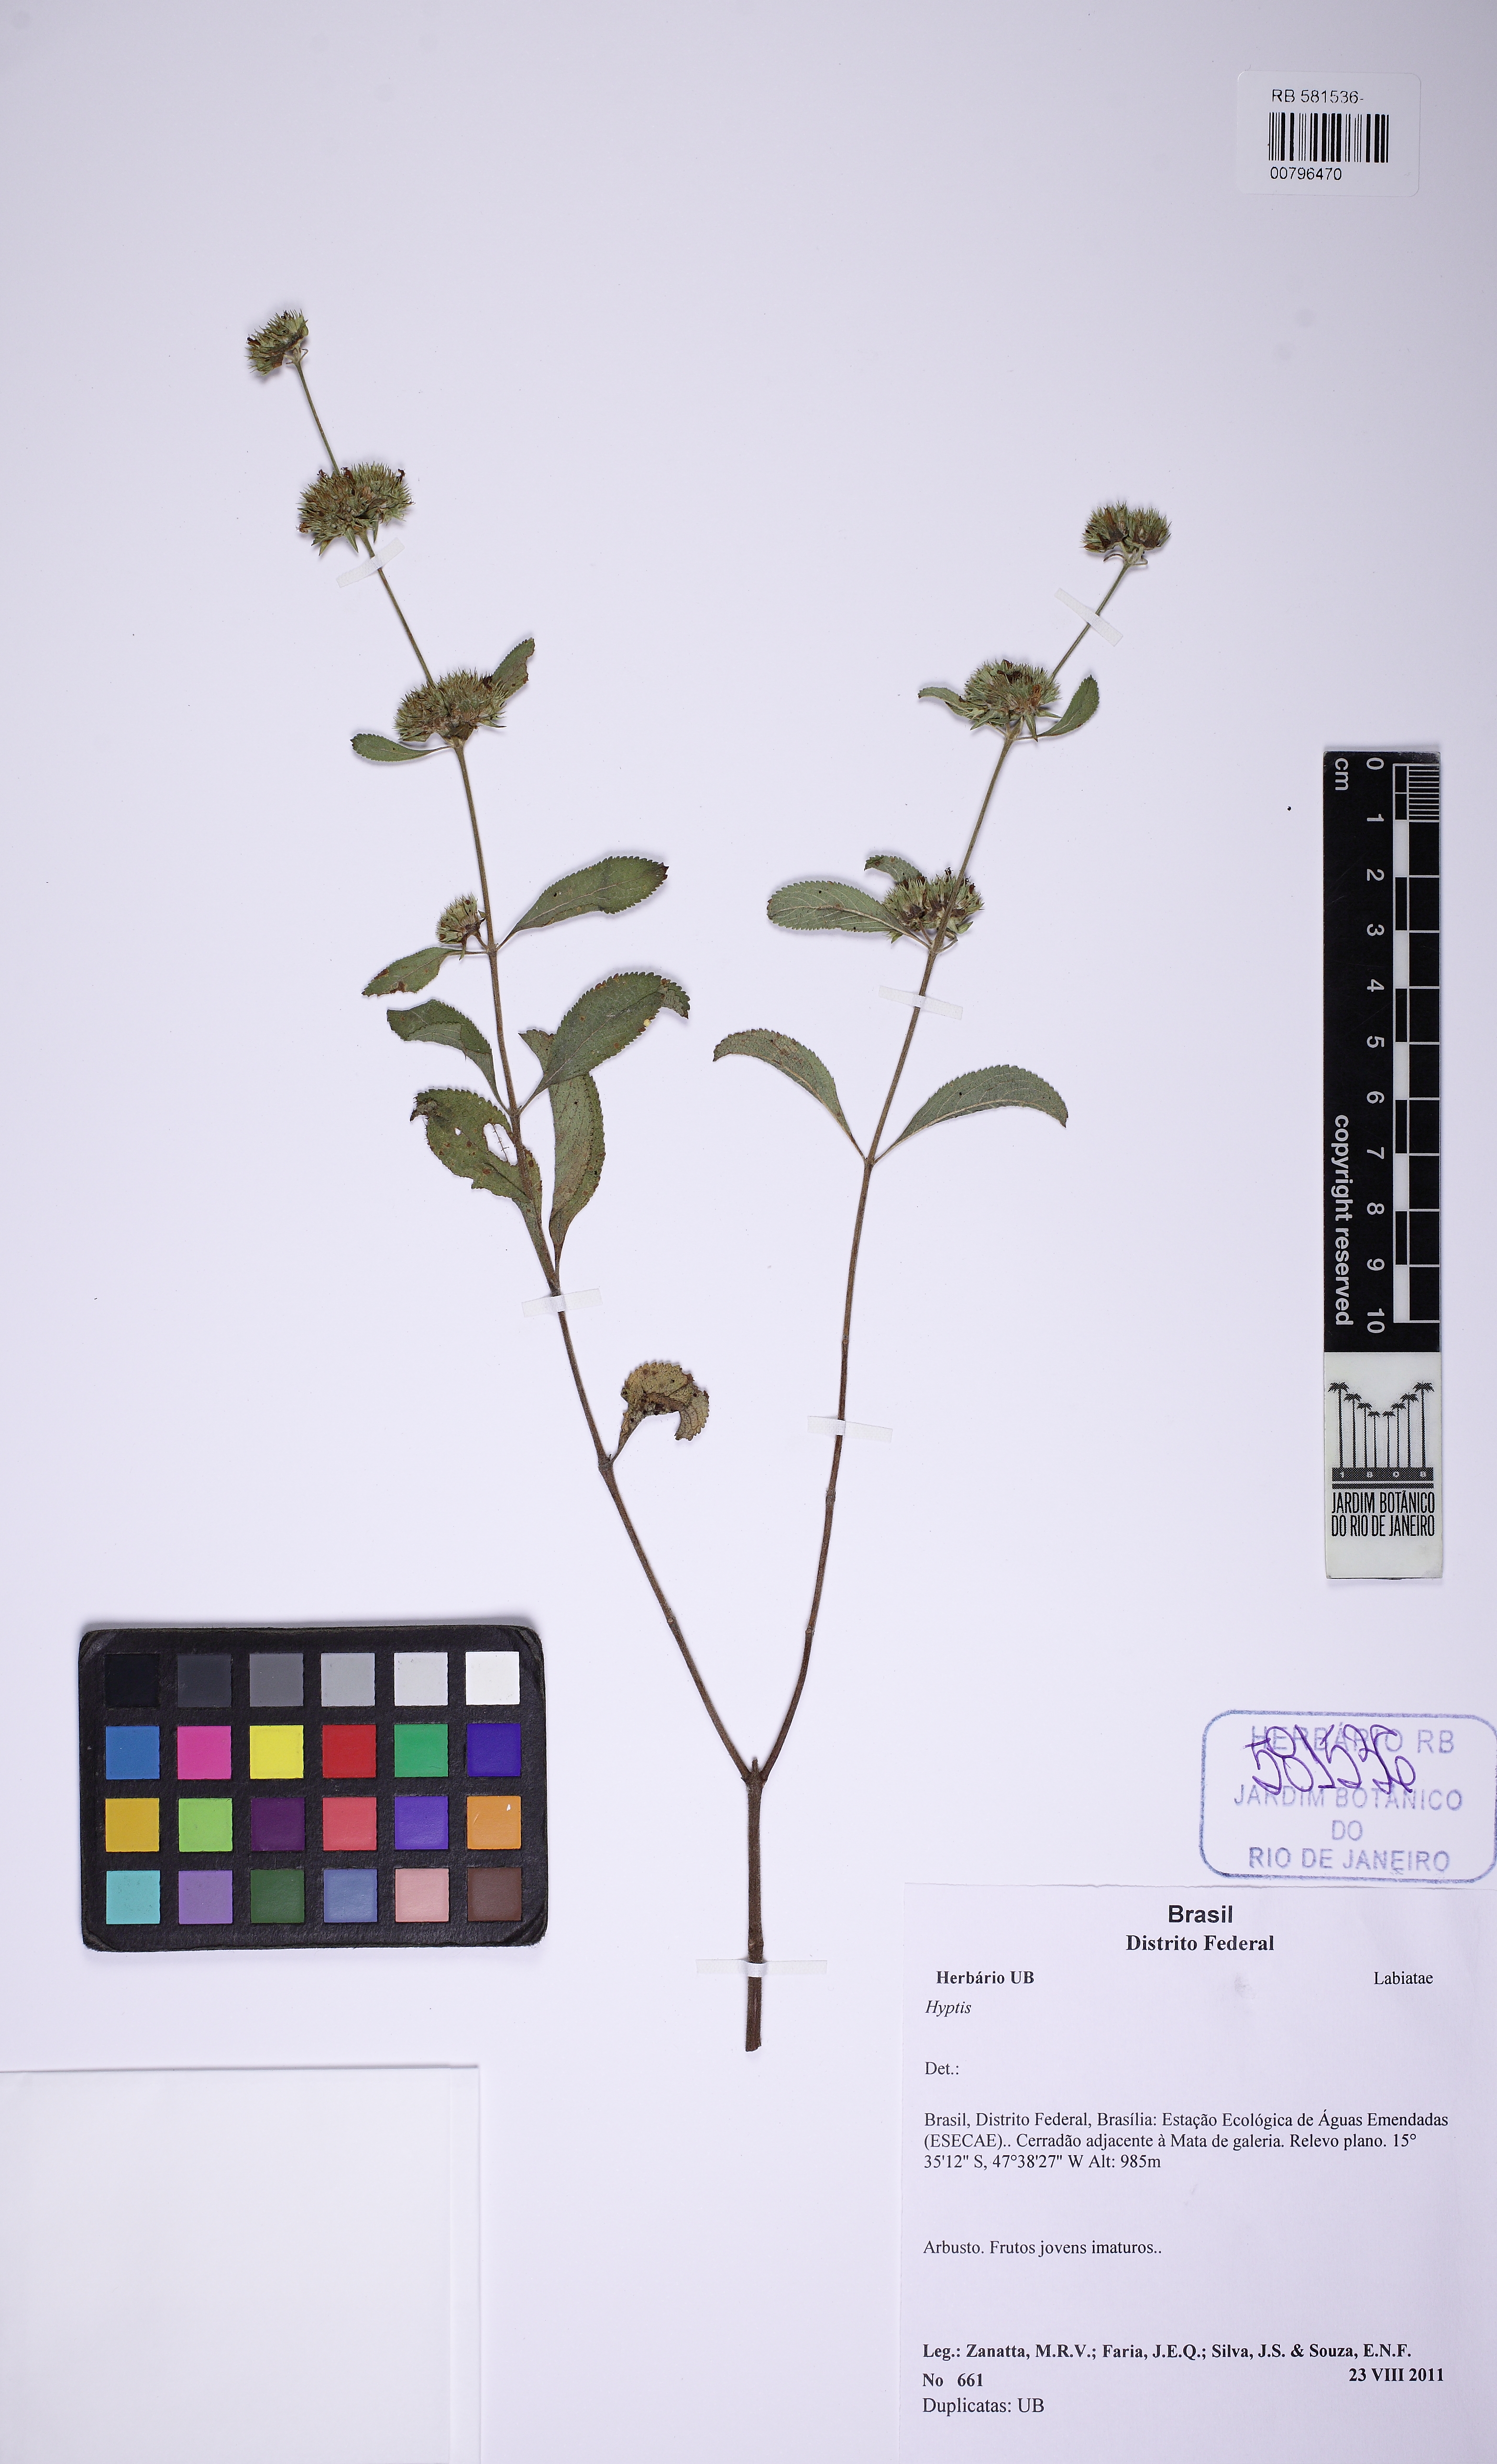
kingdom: Plantae
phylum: Tracheophyta
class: Magnoliopsida
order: Lamiales
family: Lamiaceae
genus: Hyptis
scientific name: Hyptis
